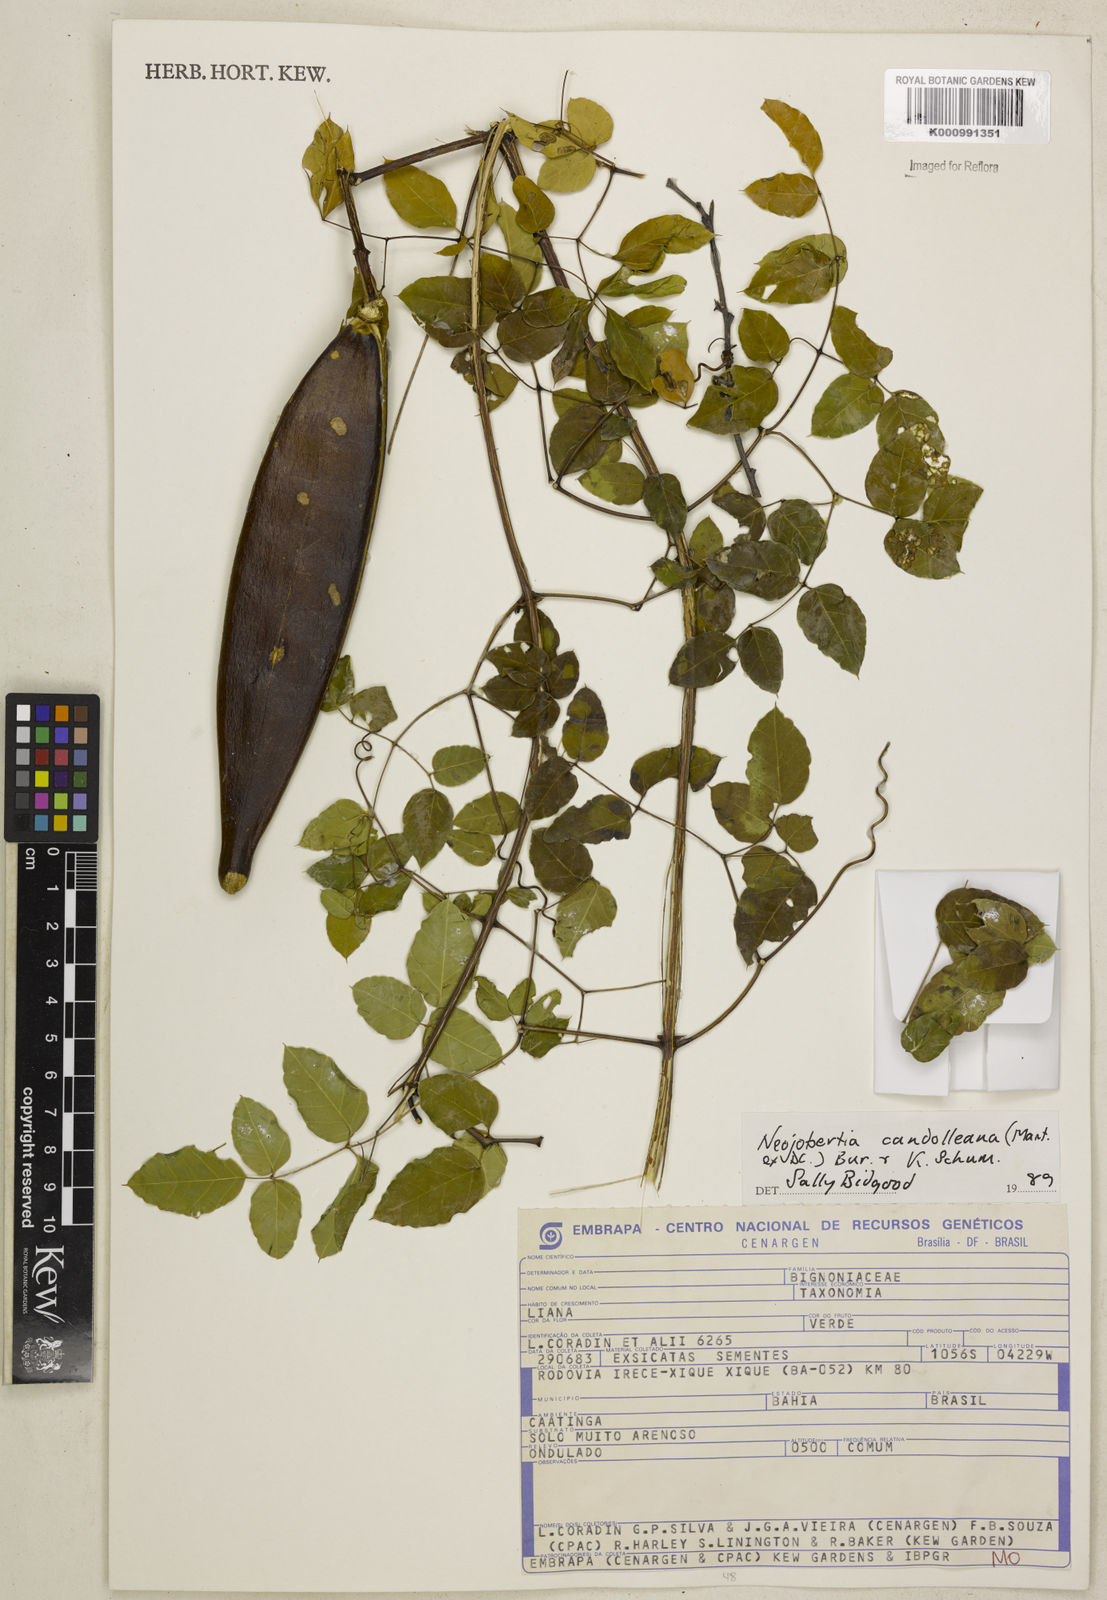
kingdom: Plantae
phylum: Tracheophyta
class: Magnoliopsida
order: Lamiales
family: Bignoniaceae
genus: Adenocalymma
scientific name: Adenocalymma candolleanum
